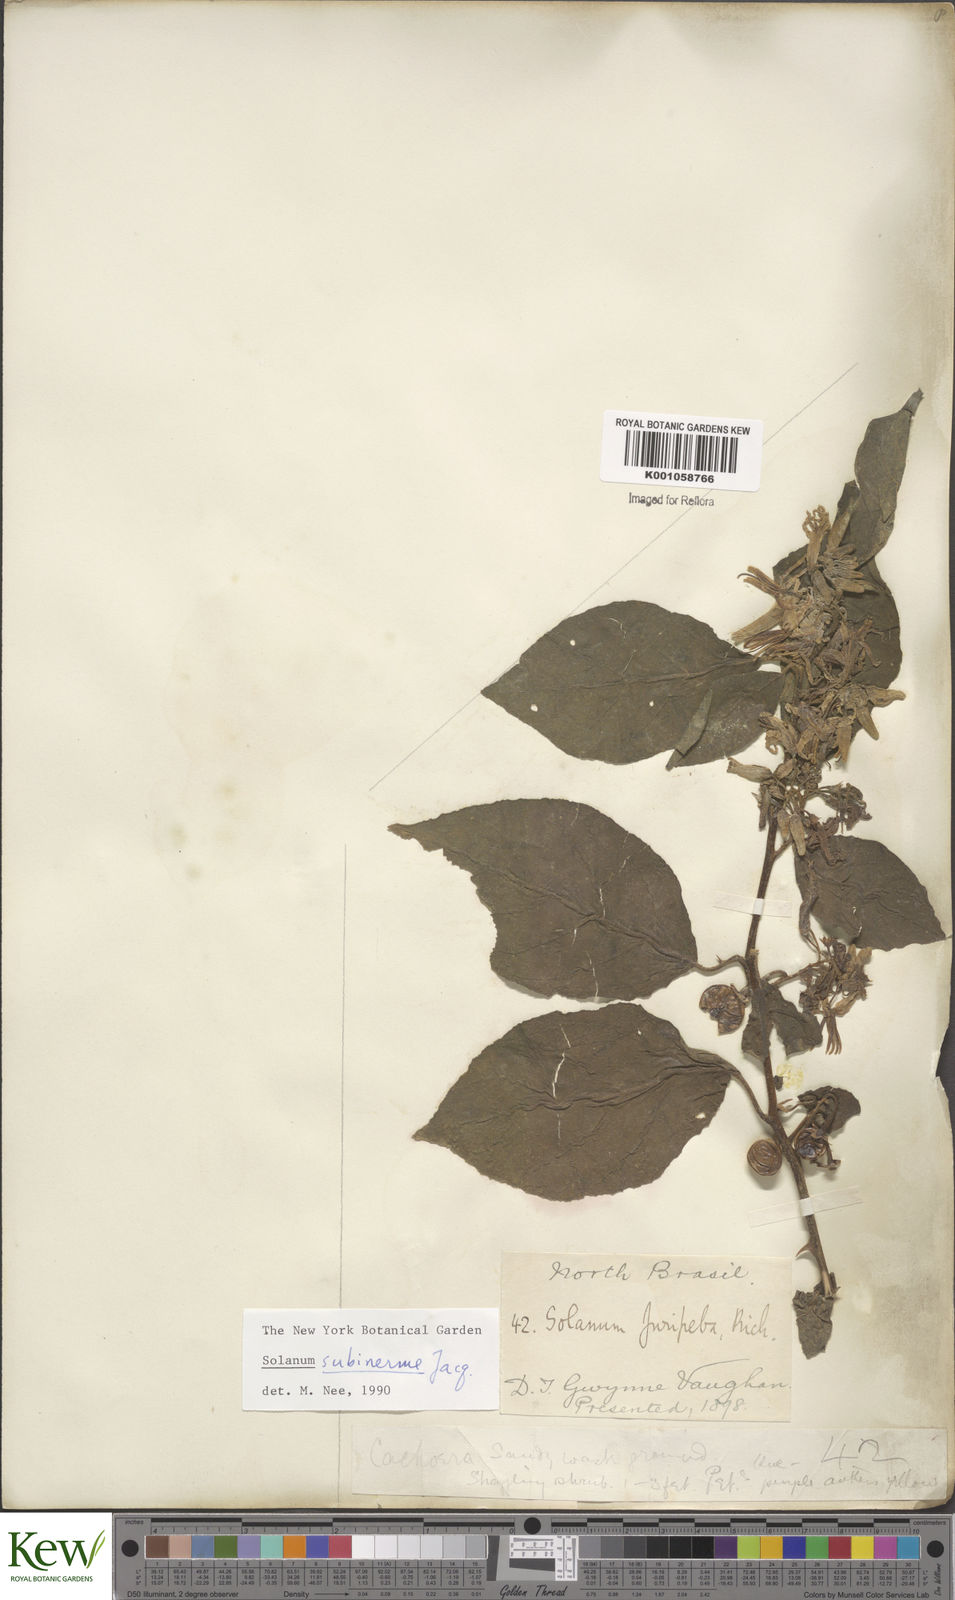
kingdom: Plantae
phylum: Tracheophyta
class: Magnoliopsida
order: Solanales
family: Solanaceae
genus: Solanum
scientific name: Solanum subinerme
